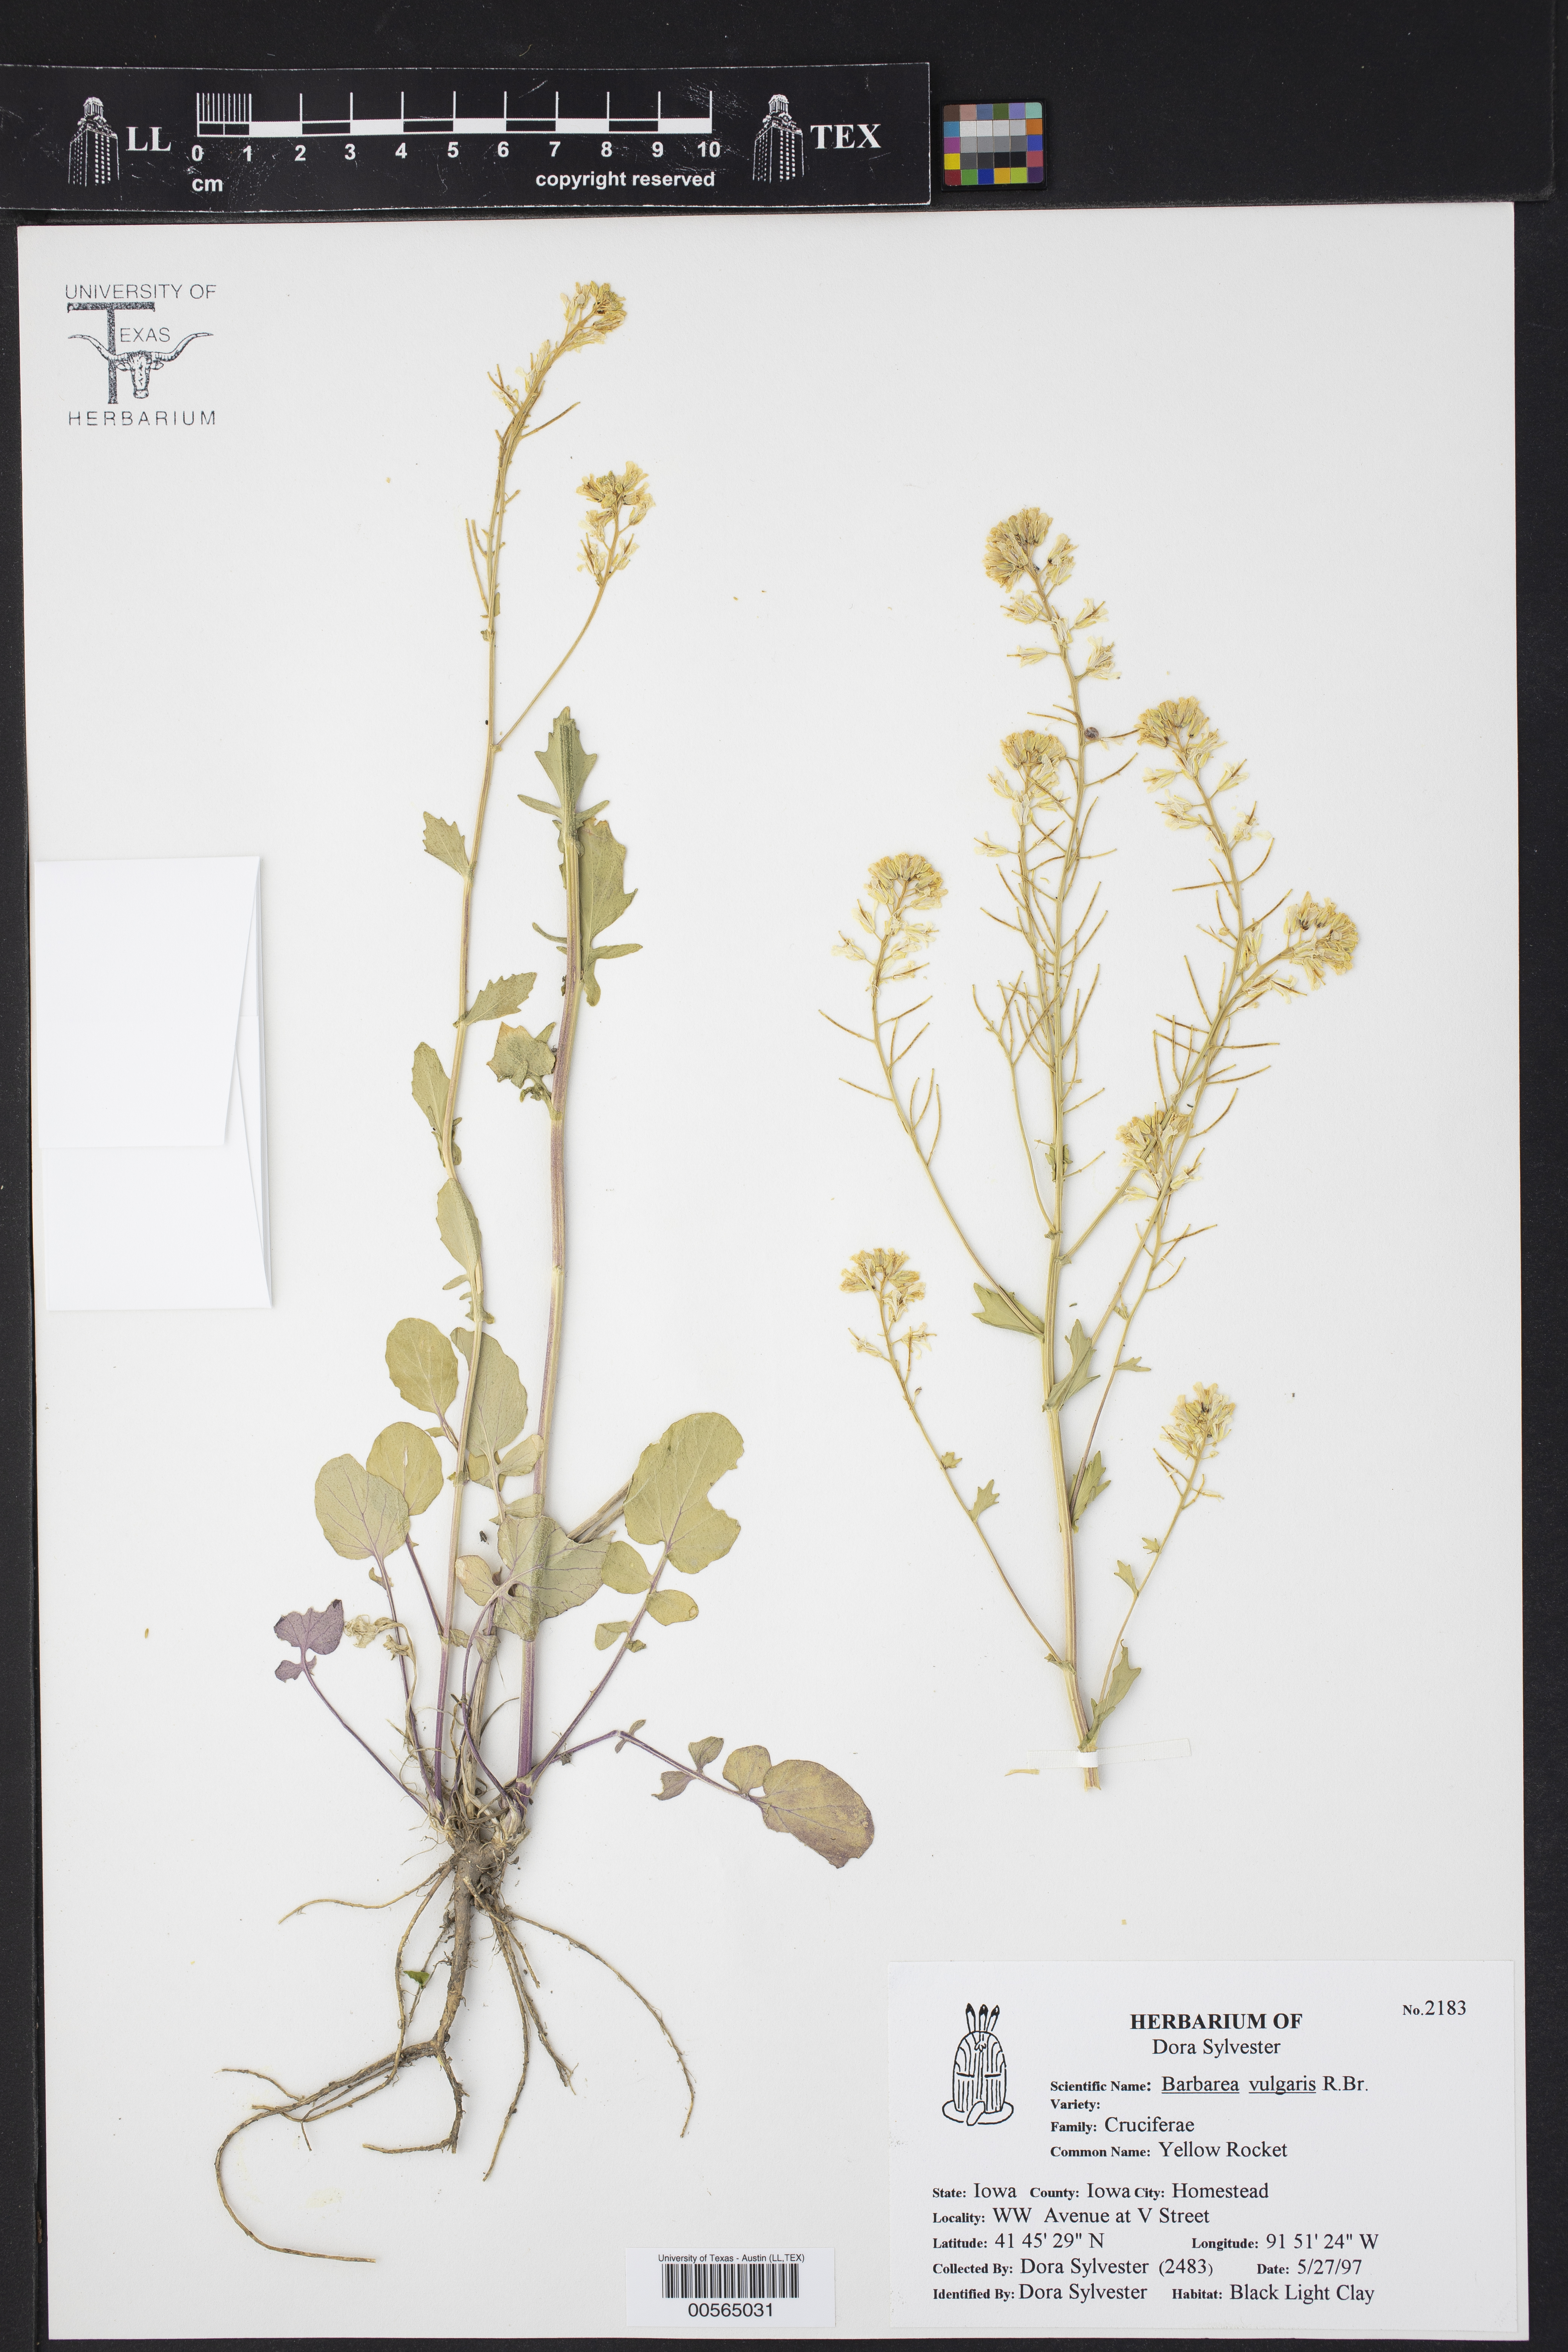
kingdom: Plantae
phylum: Tracheophyta
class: Magnoliopsida
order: Brassicales
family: Brassicaceae
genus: Barbarea
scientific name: Barbarea vulgaris
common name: Cressy-greens
